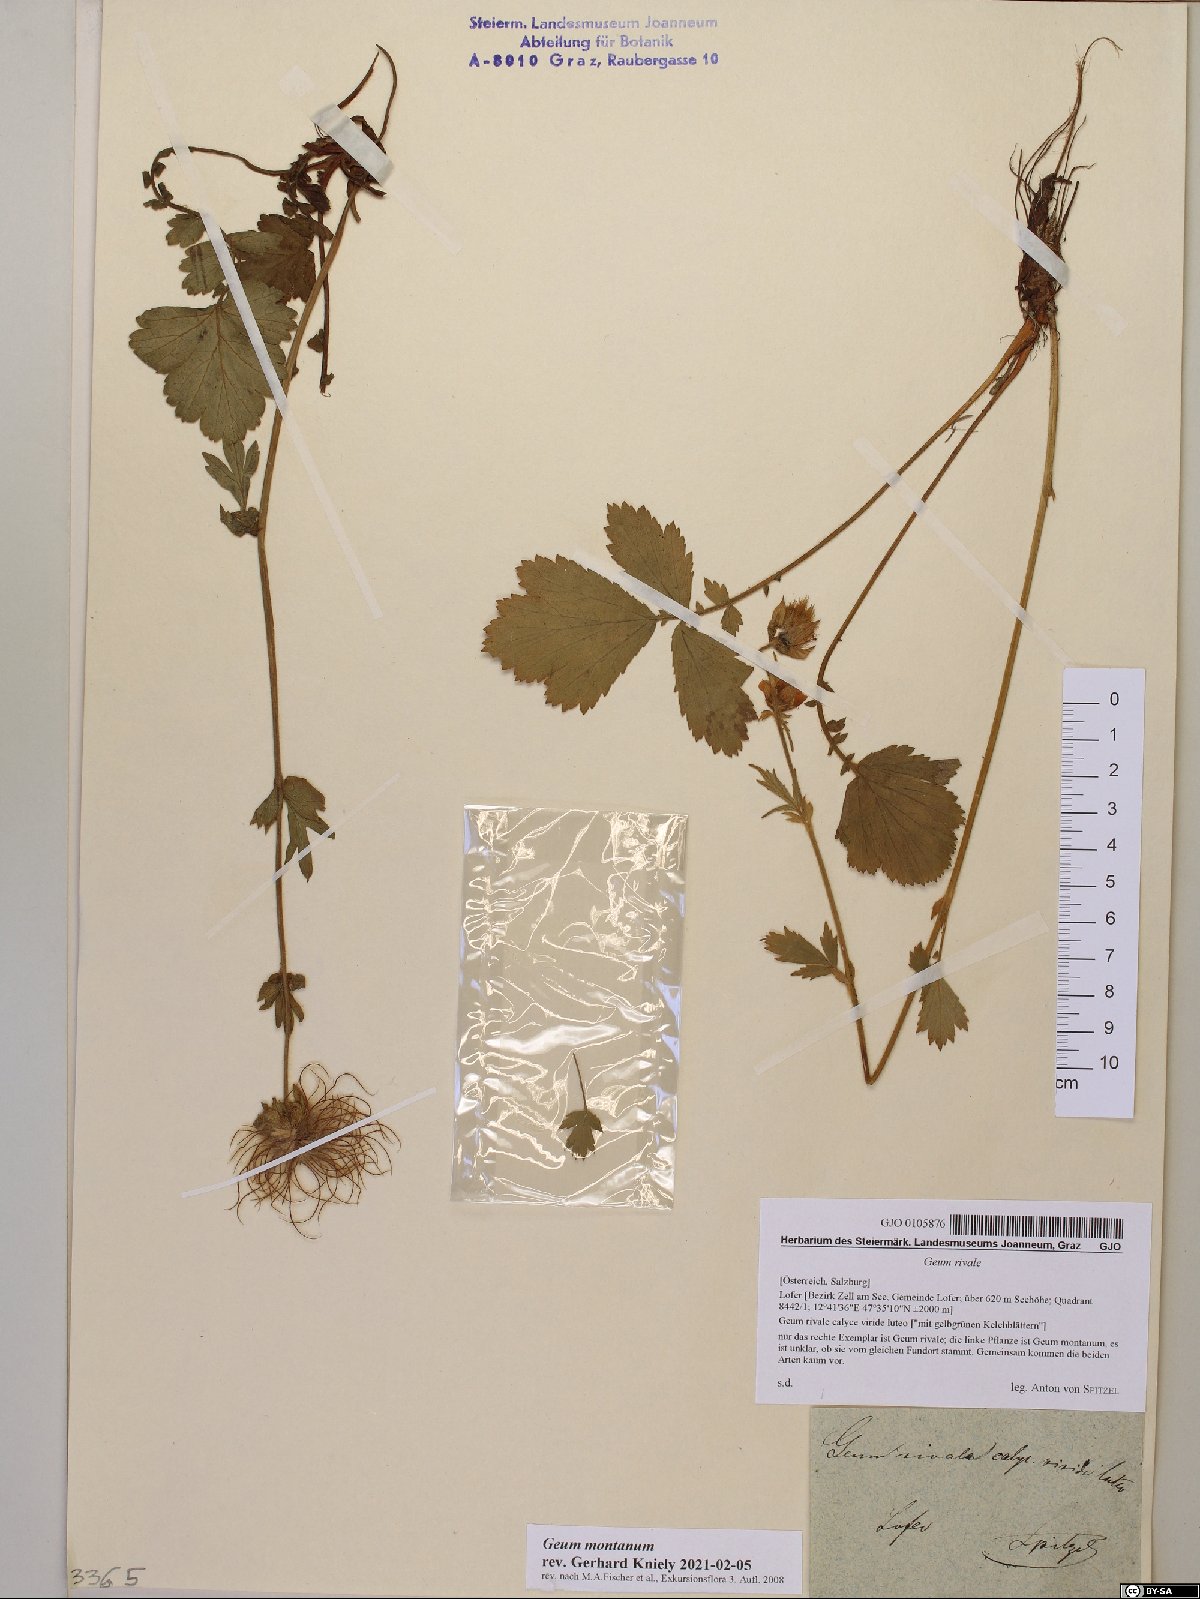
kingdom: Plantae
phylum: Tracheophyta
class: Magnoliopsida
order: Rosales
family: Rosaceae
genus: Geum
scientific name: Geum rivale
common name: Water avens
